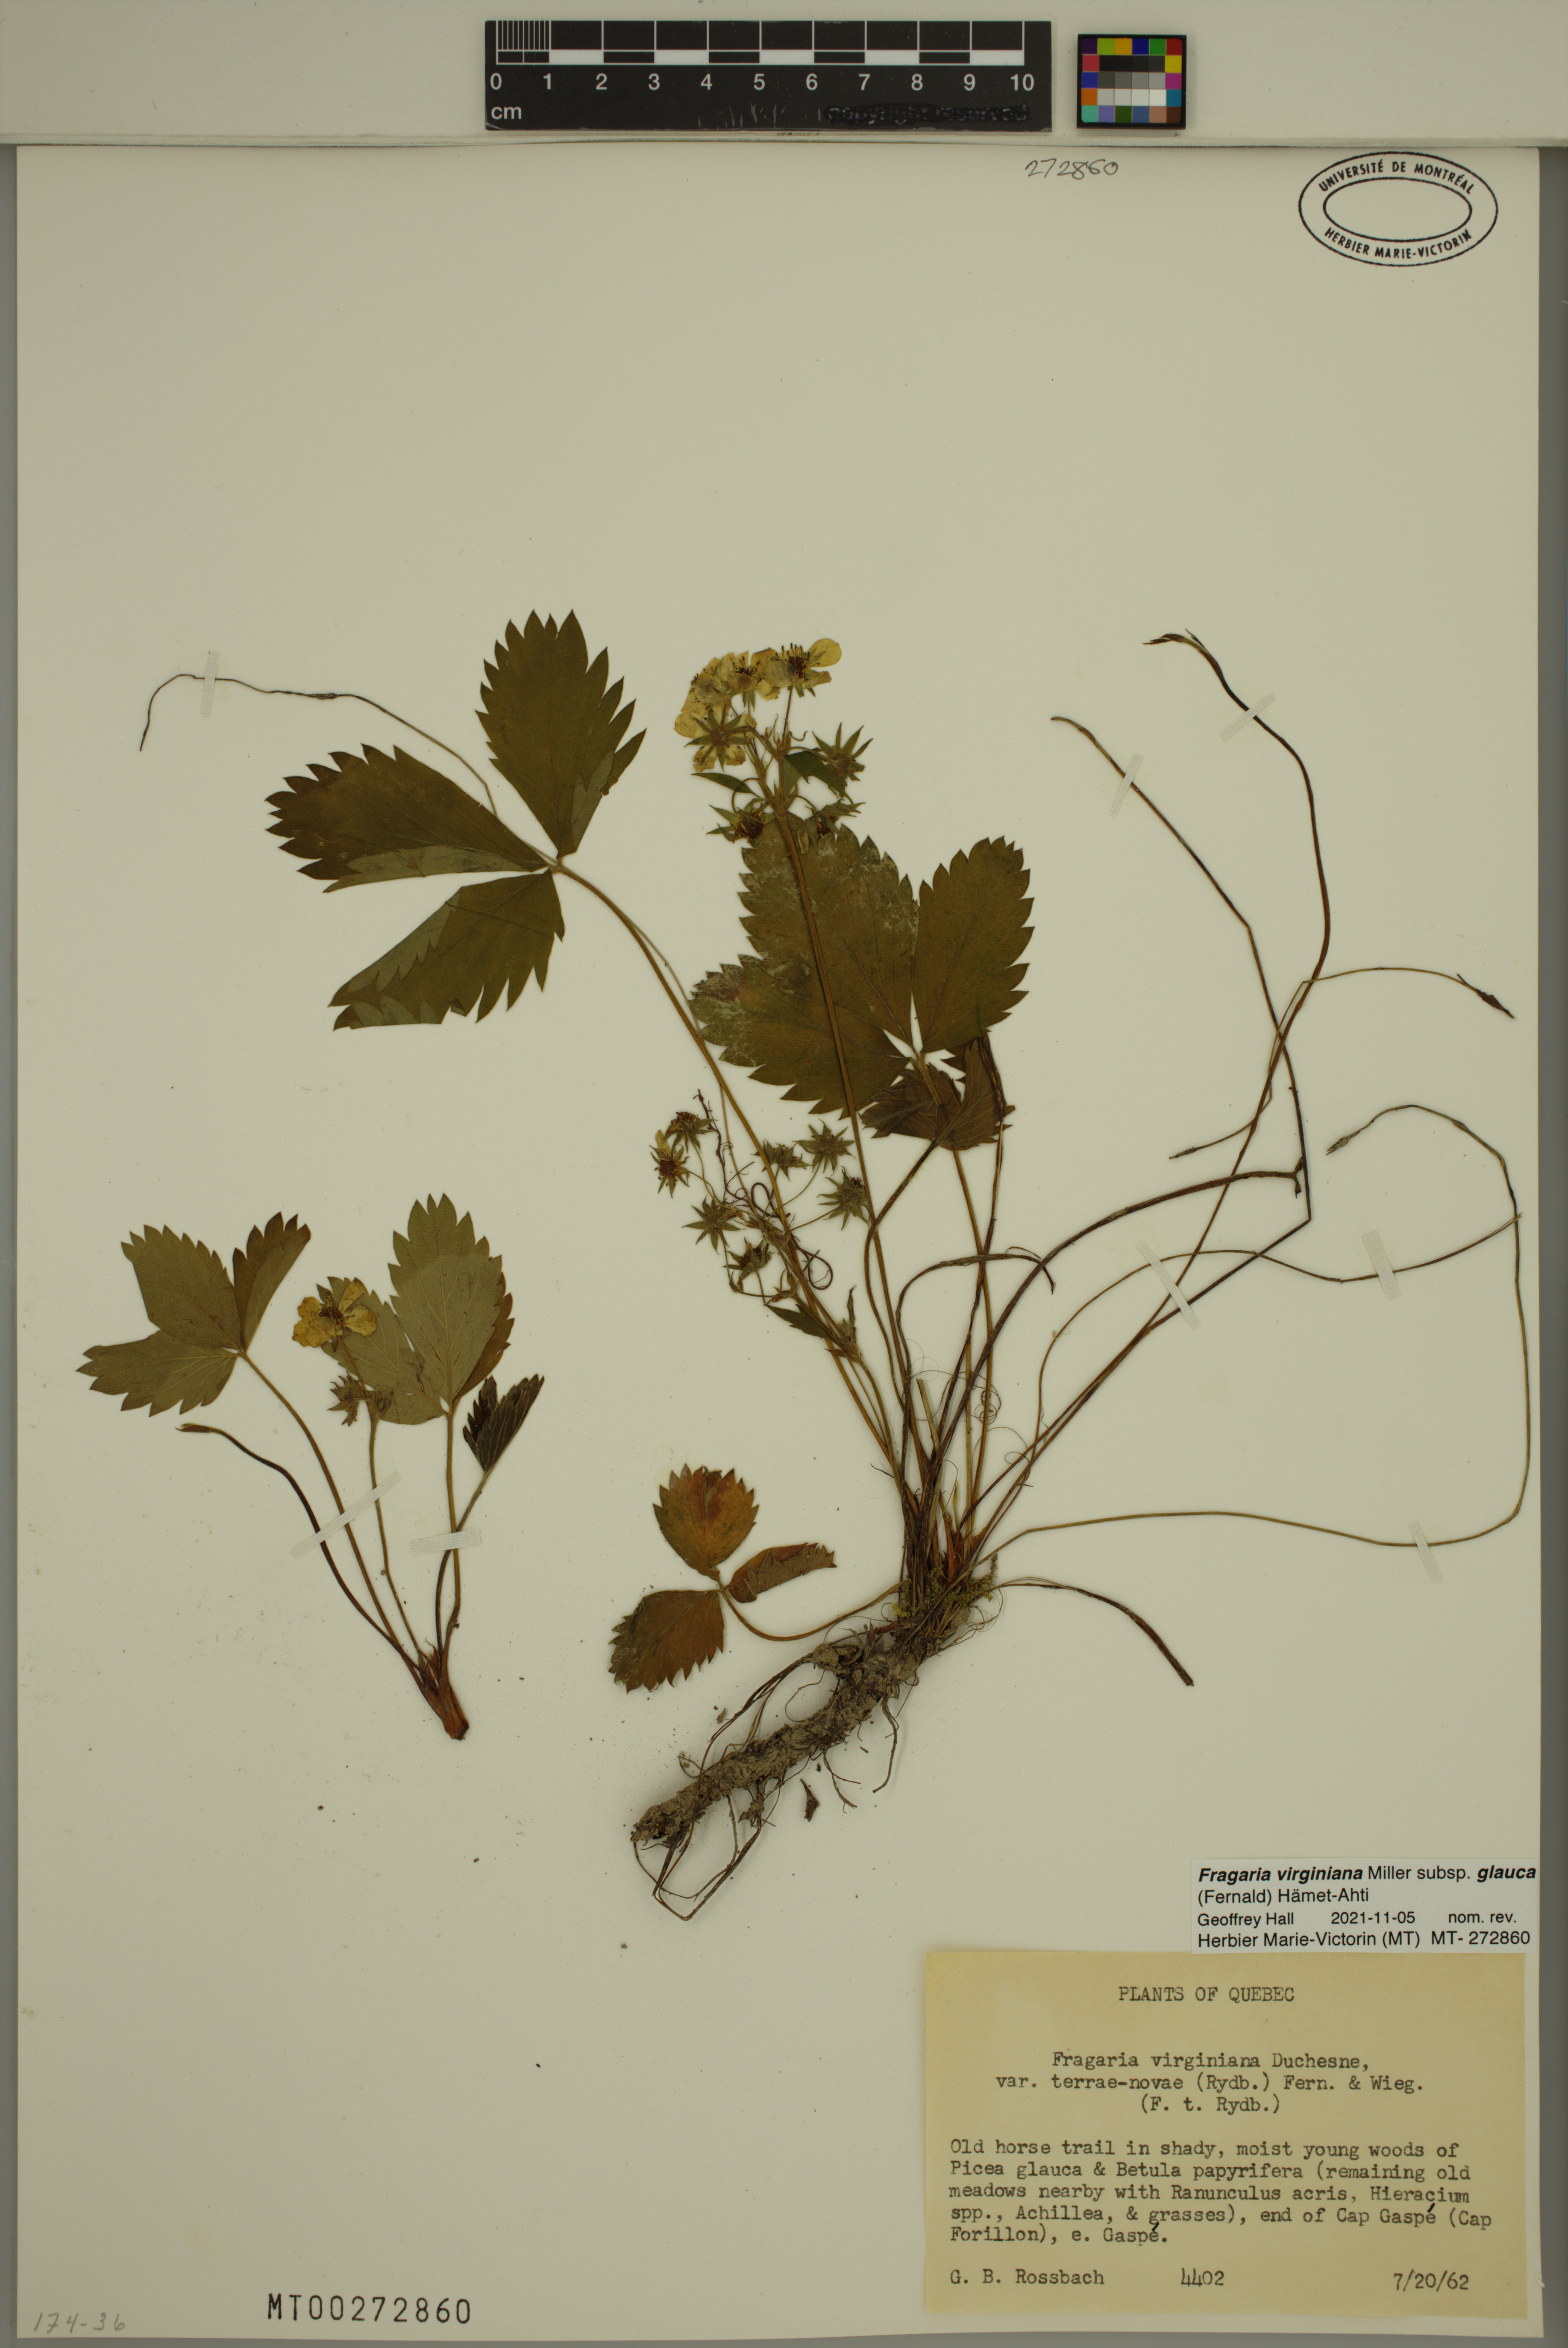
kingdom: Plantae
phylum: Tracheophyta
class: Magnoliopsida
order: Rosales
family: Rosaceae
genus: Fragaria
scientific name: Fragaria virginiana
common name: Thickleaved wild strawberry
